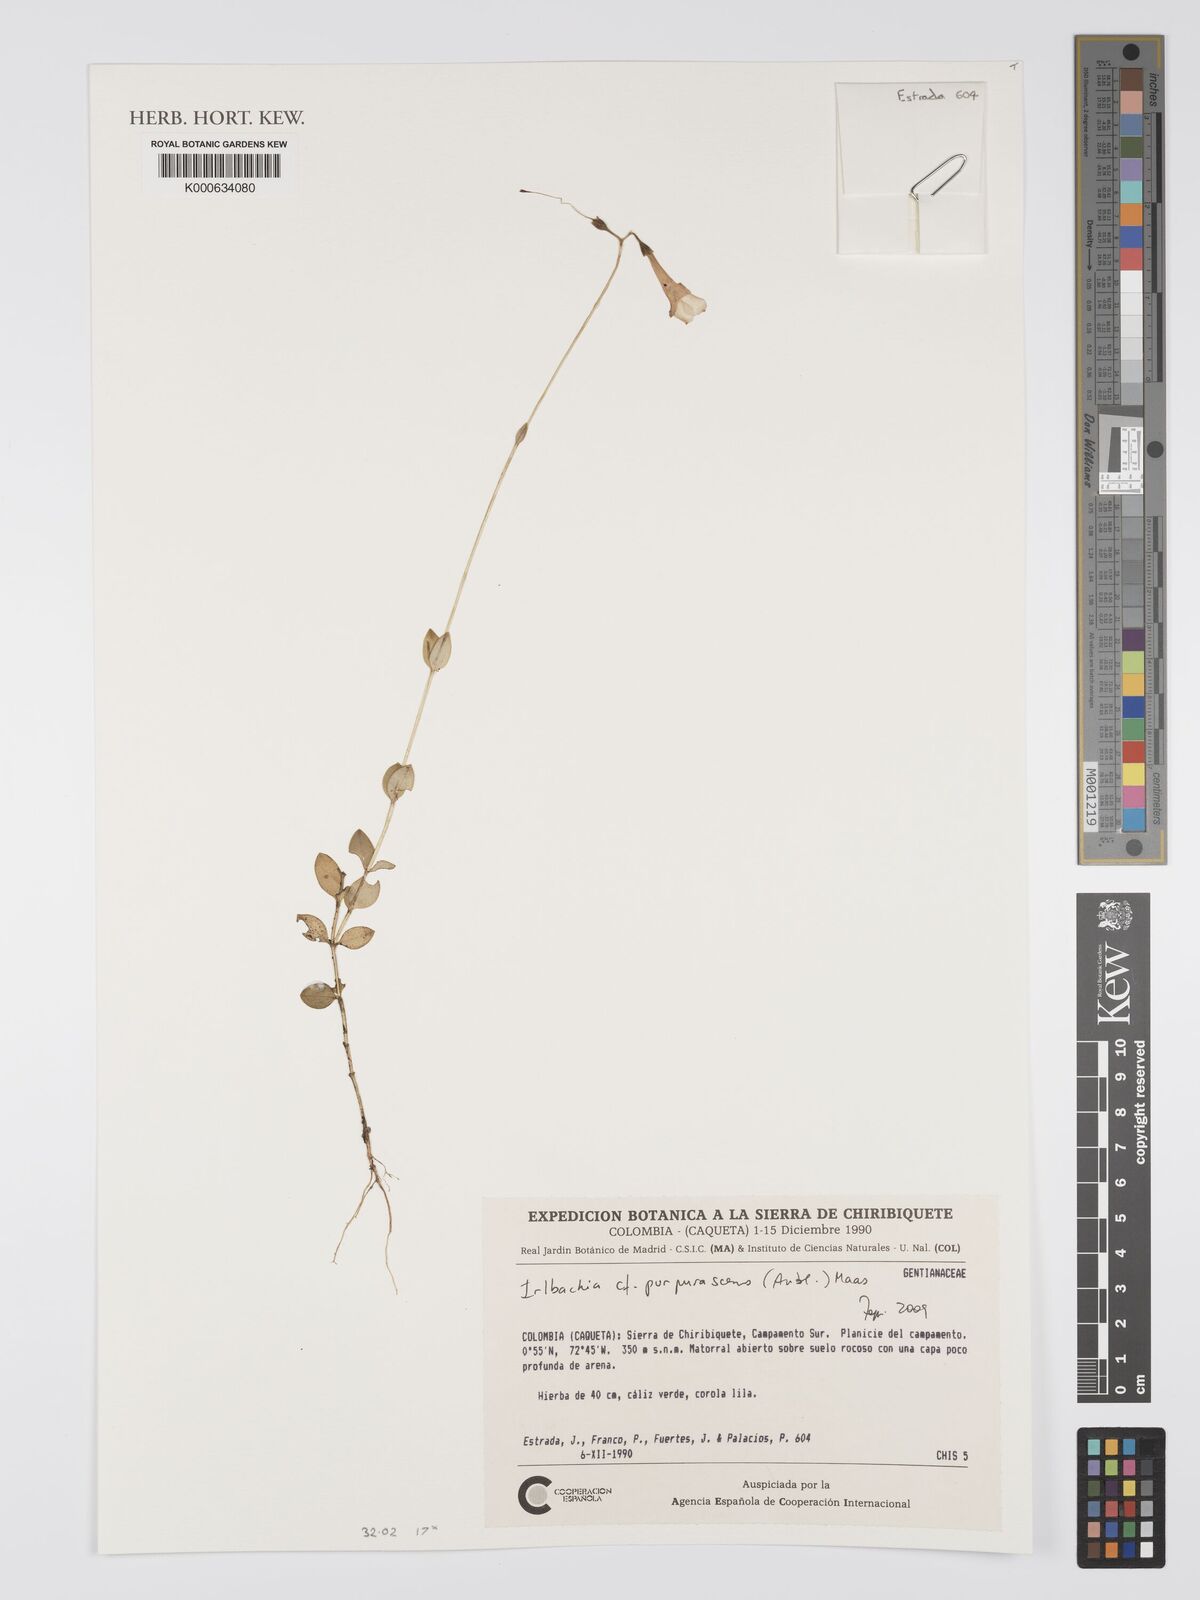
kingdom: Plantae
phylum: Tracheophyta
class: Magnoliopsida
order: Gentianales
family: Gentianaceae
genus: Irlbachia
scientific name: Irlbachia
